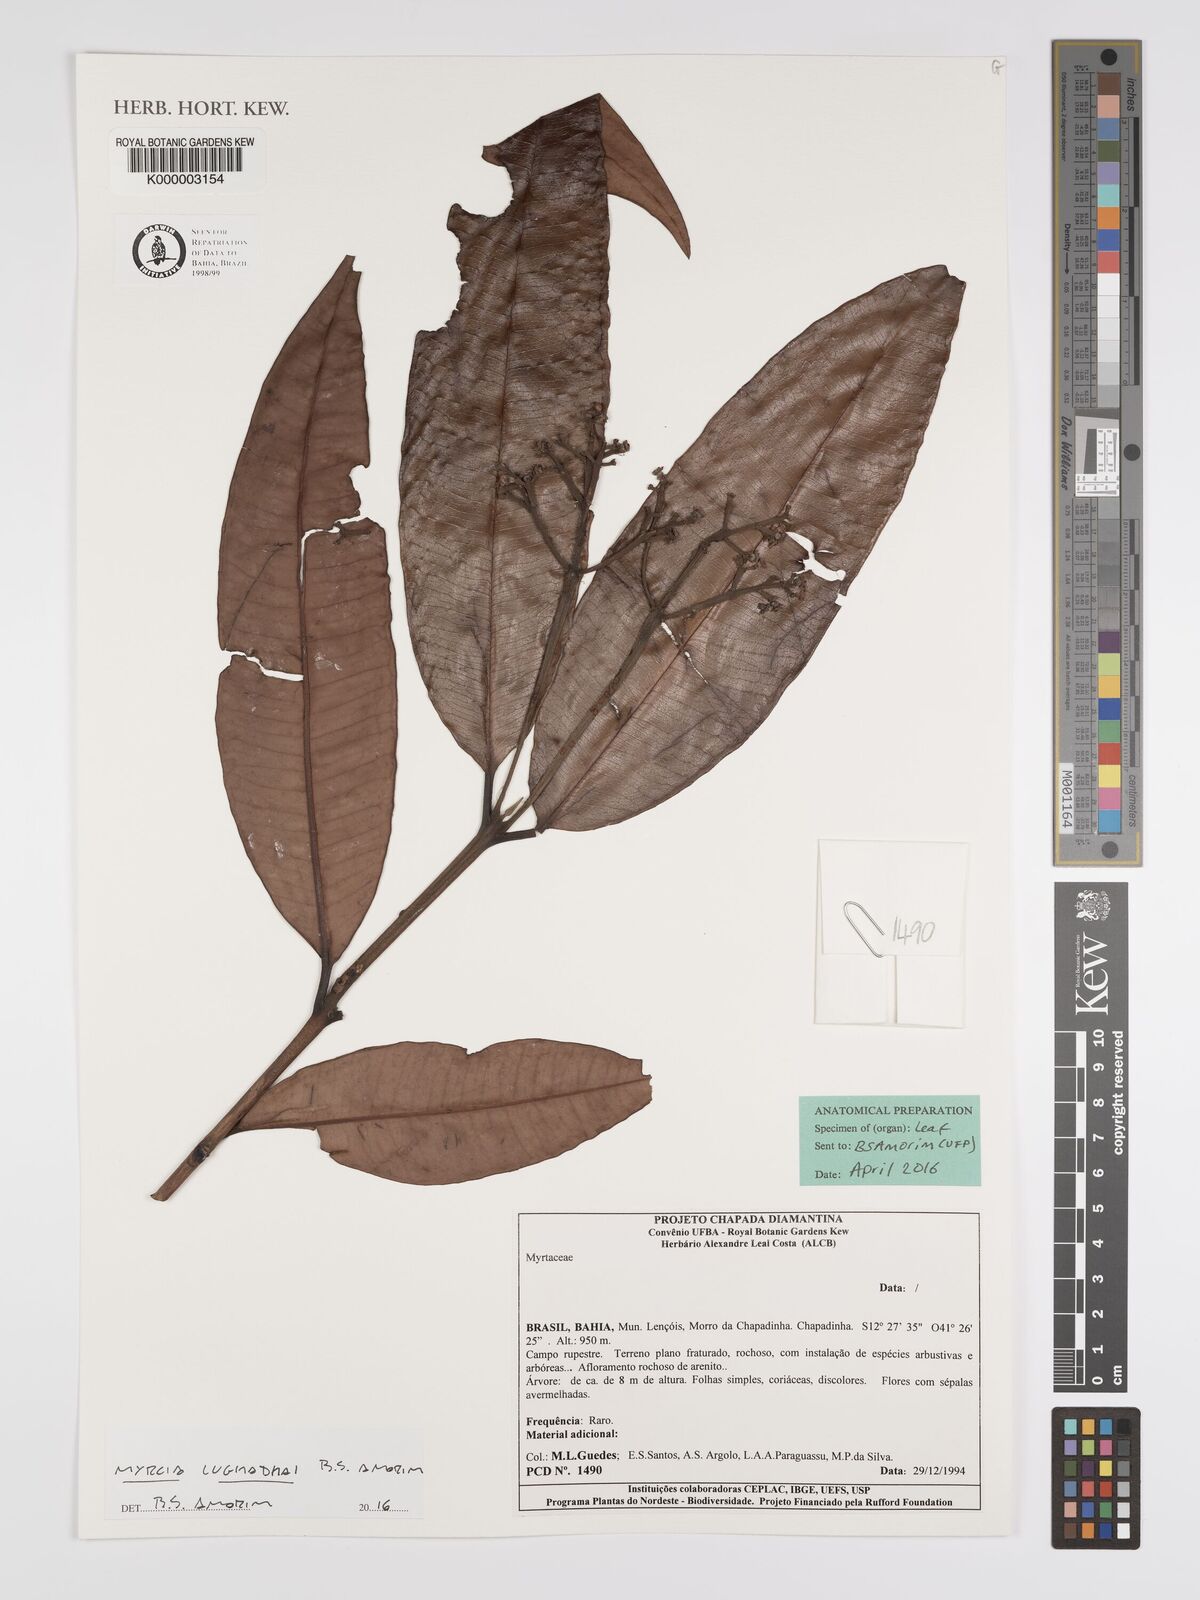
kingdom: Plantae
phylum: Tracheophyta
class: Magnoliopsida
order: Myrtales
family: Myrtaceae
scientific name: Myrtaceae
